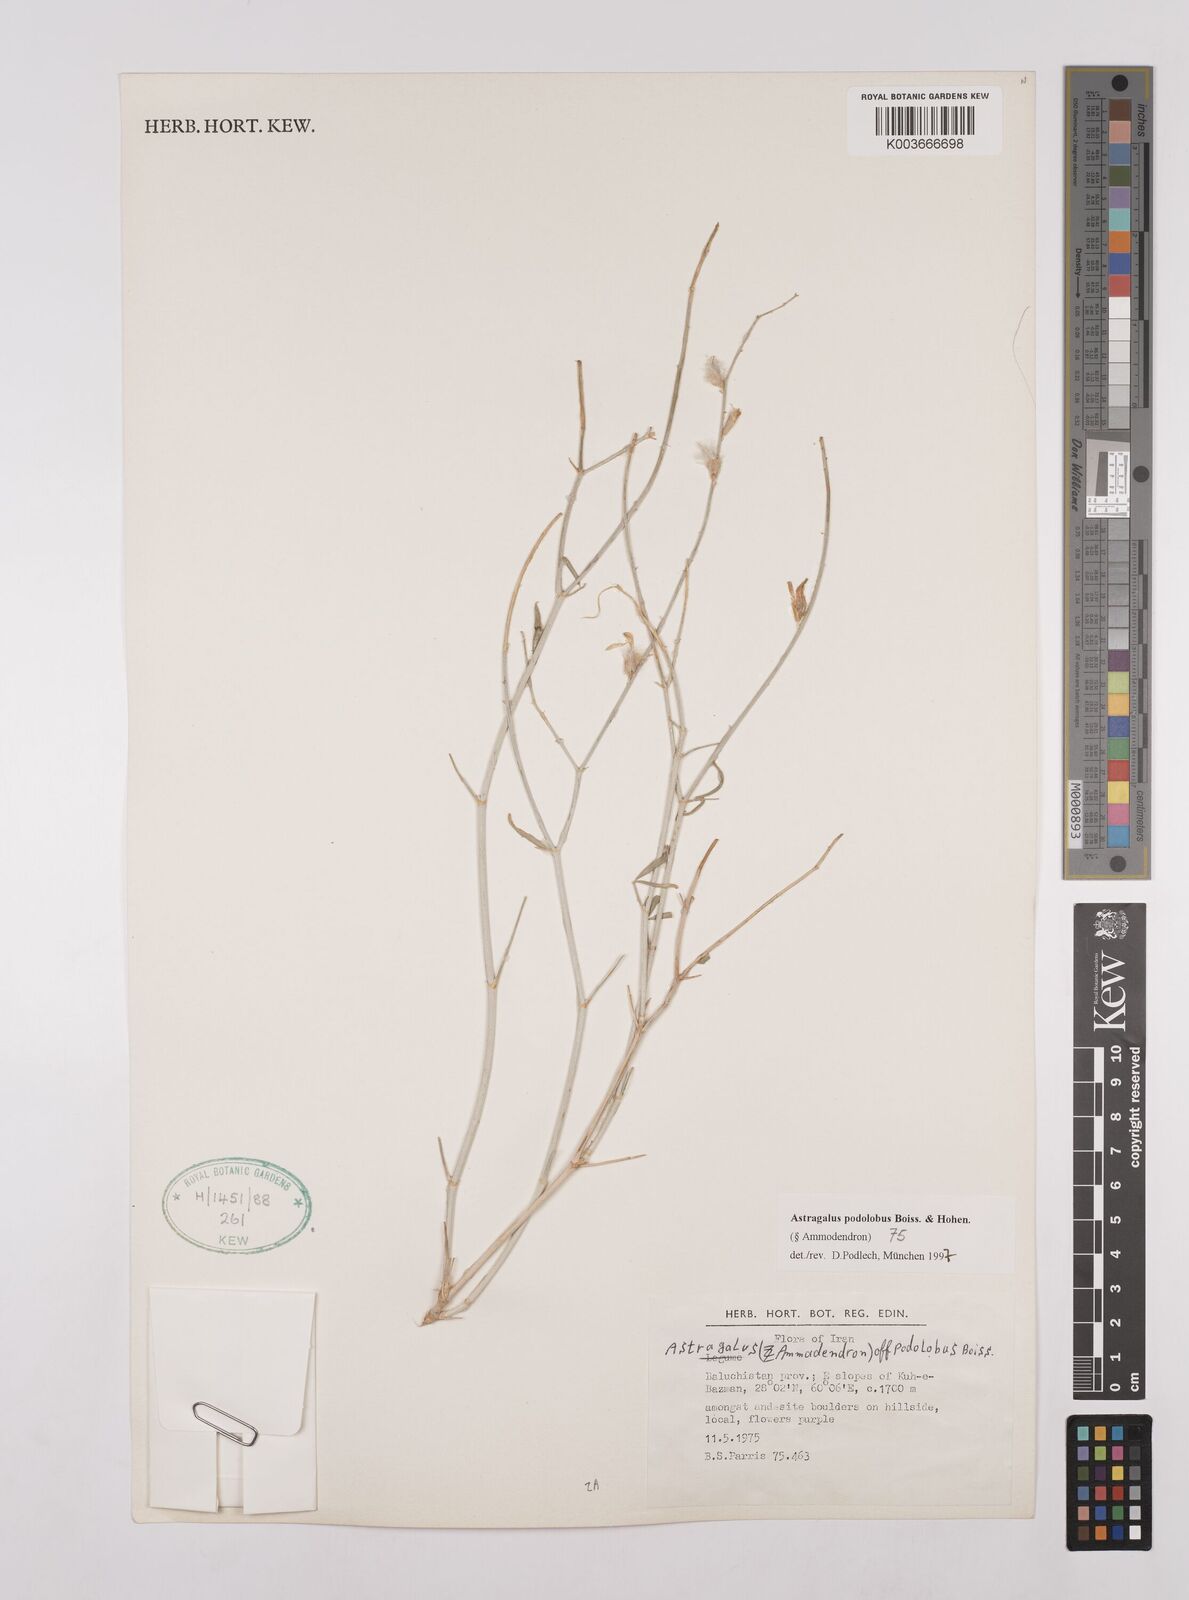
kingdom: Plantae
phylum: Tracheophyta
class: Magnoliopsida
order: Fabales
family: Fabaceae
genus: Astragalus
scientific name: Astragalus podolobus
